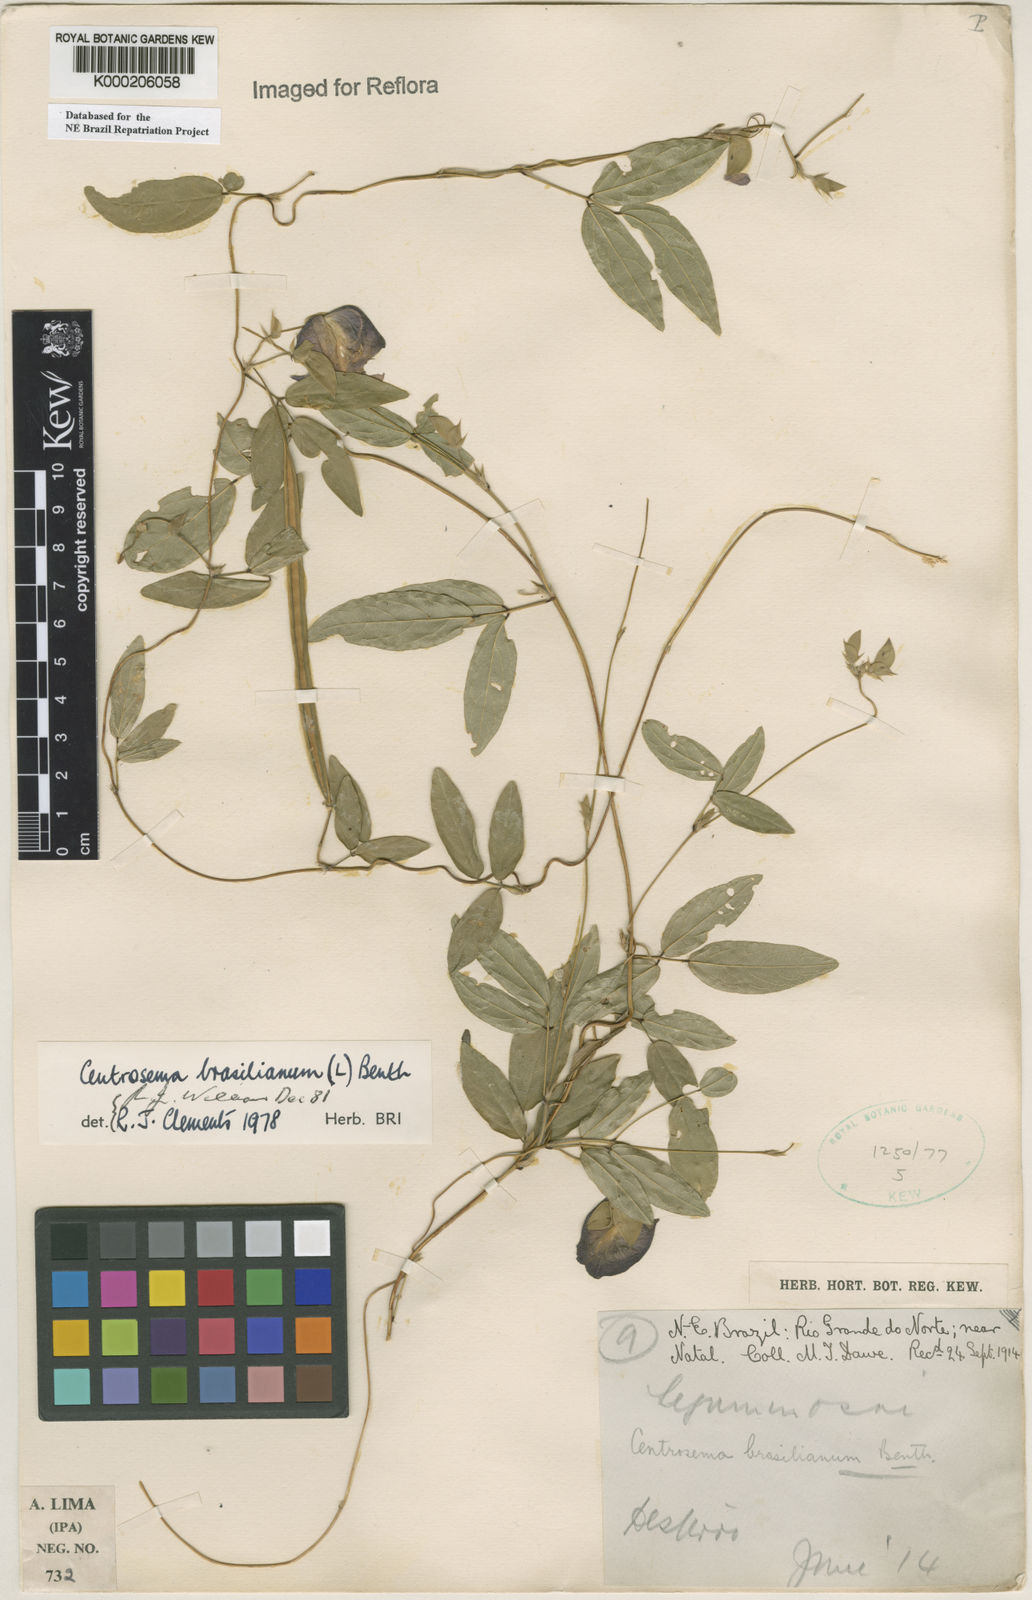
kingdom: Plantae
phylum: Tracheophyta
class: Magnoliopsida
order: Fabales
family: Fabaceae
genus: Centrosema
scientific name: Centrosema brasilianum
